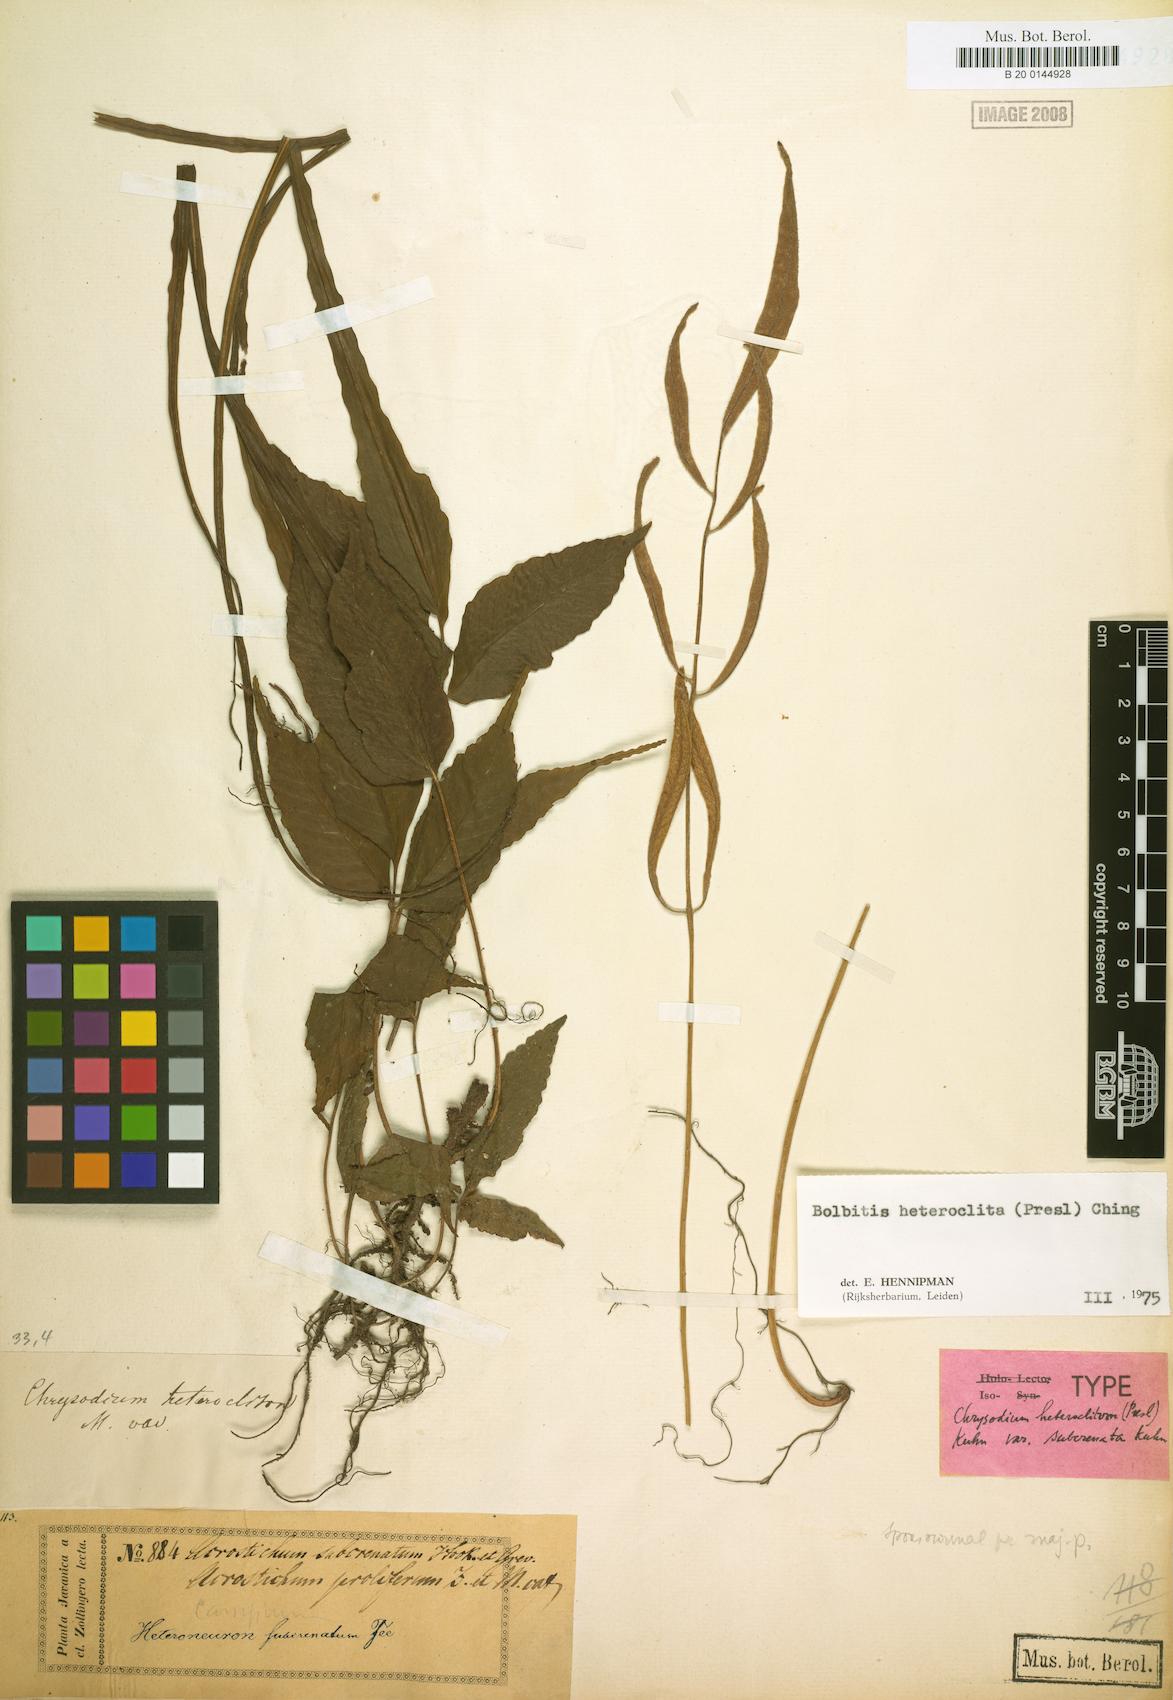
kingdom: Plantae
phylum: Tracheophyta
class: Polypodiopsida
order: Polypodiales
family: Dryopteridaceae
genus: Bolbitis
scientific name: Bolbitis heteroclita
